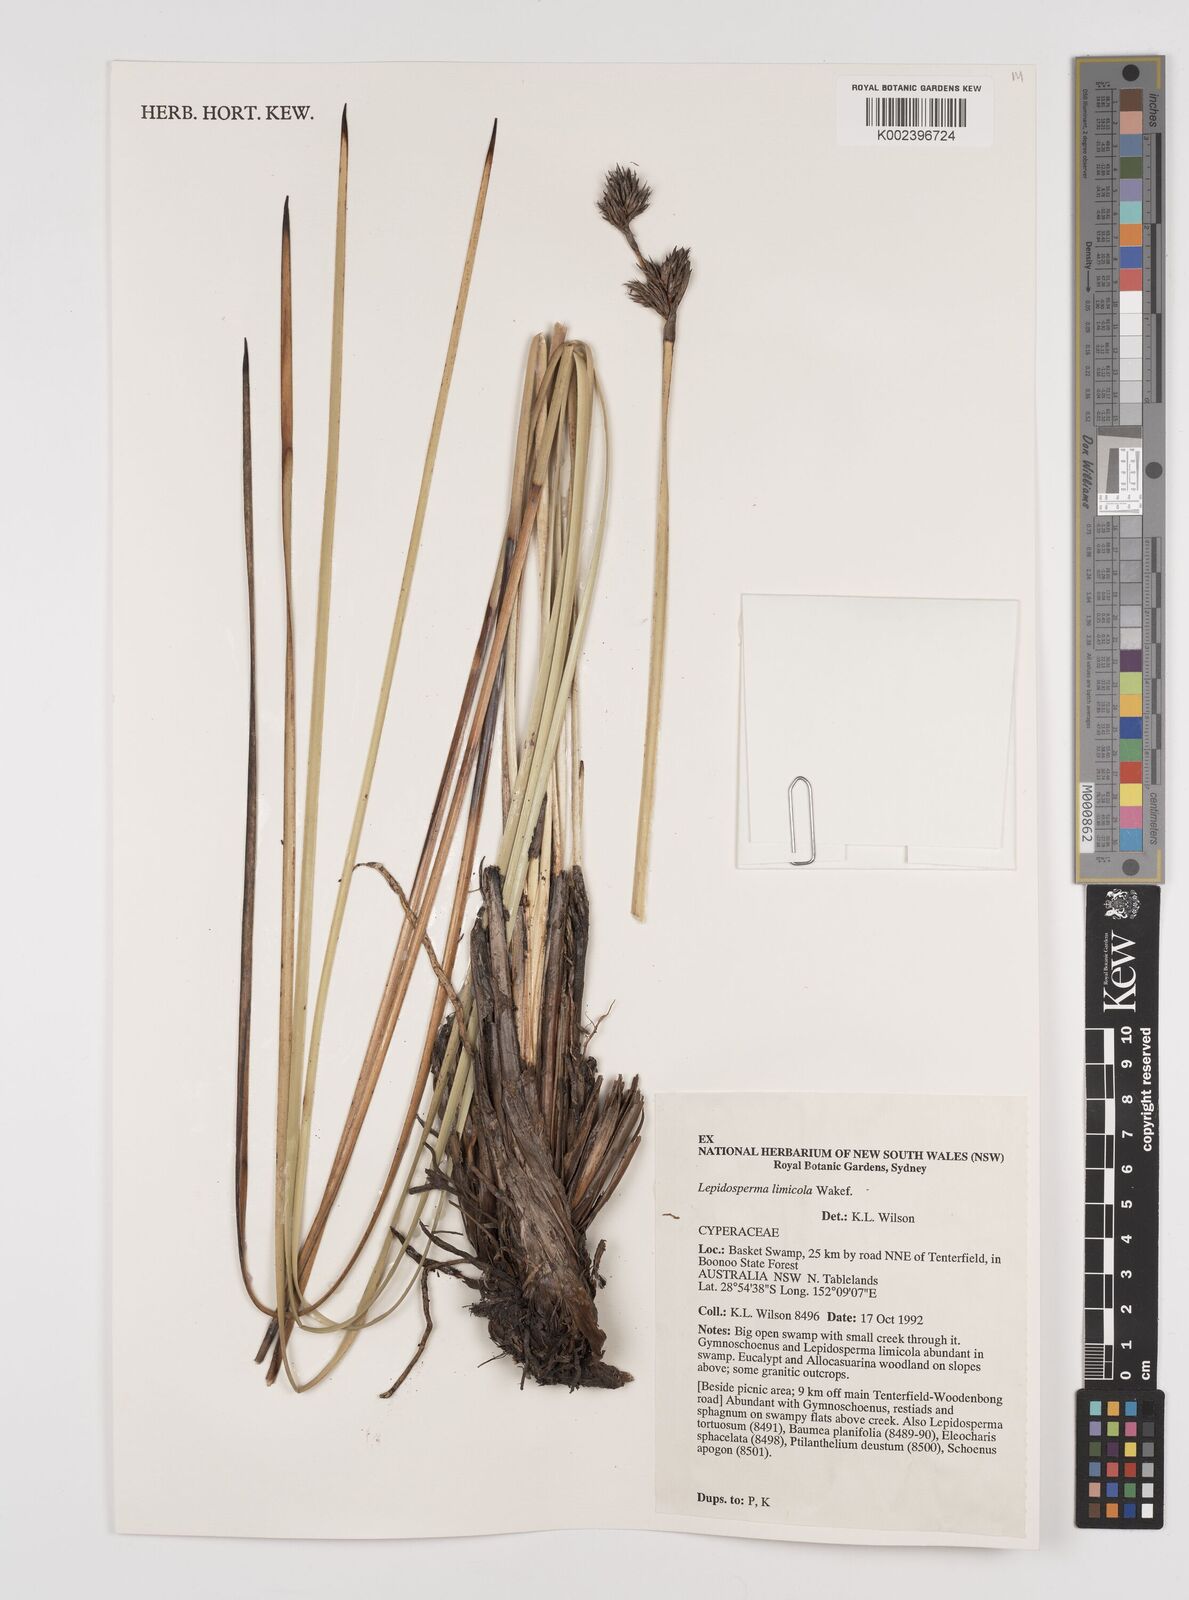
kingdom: Plantae
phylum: Tracheophyta
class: Liliopsida
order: Poales
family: Cyperaceae
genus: Lepidosperma
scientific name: Lepidosperma limicola
